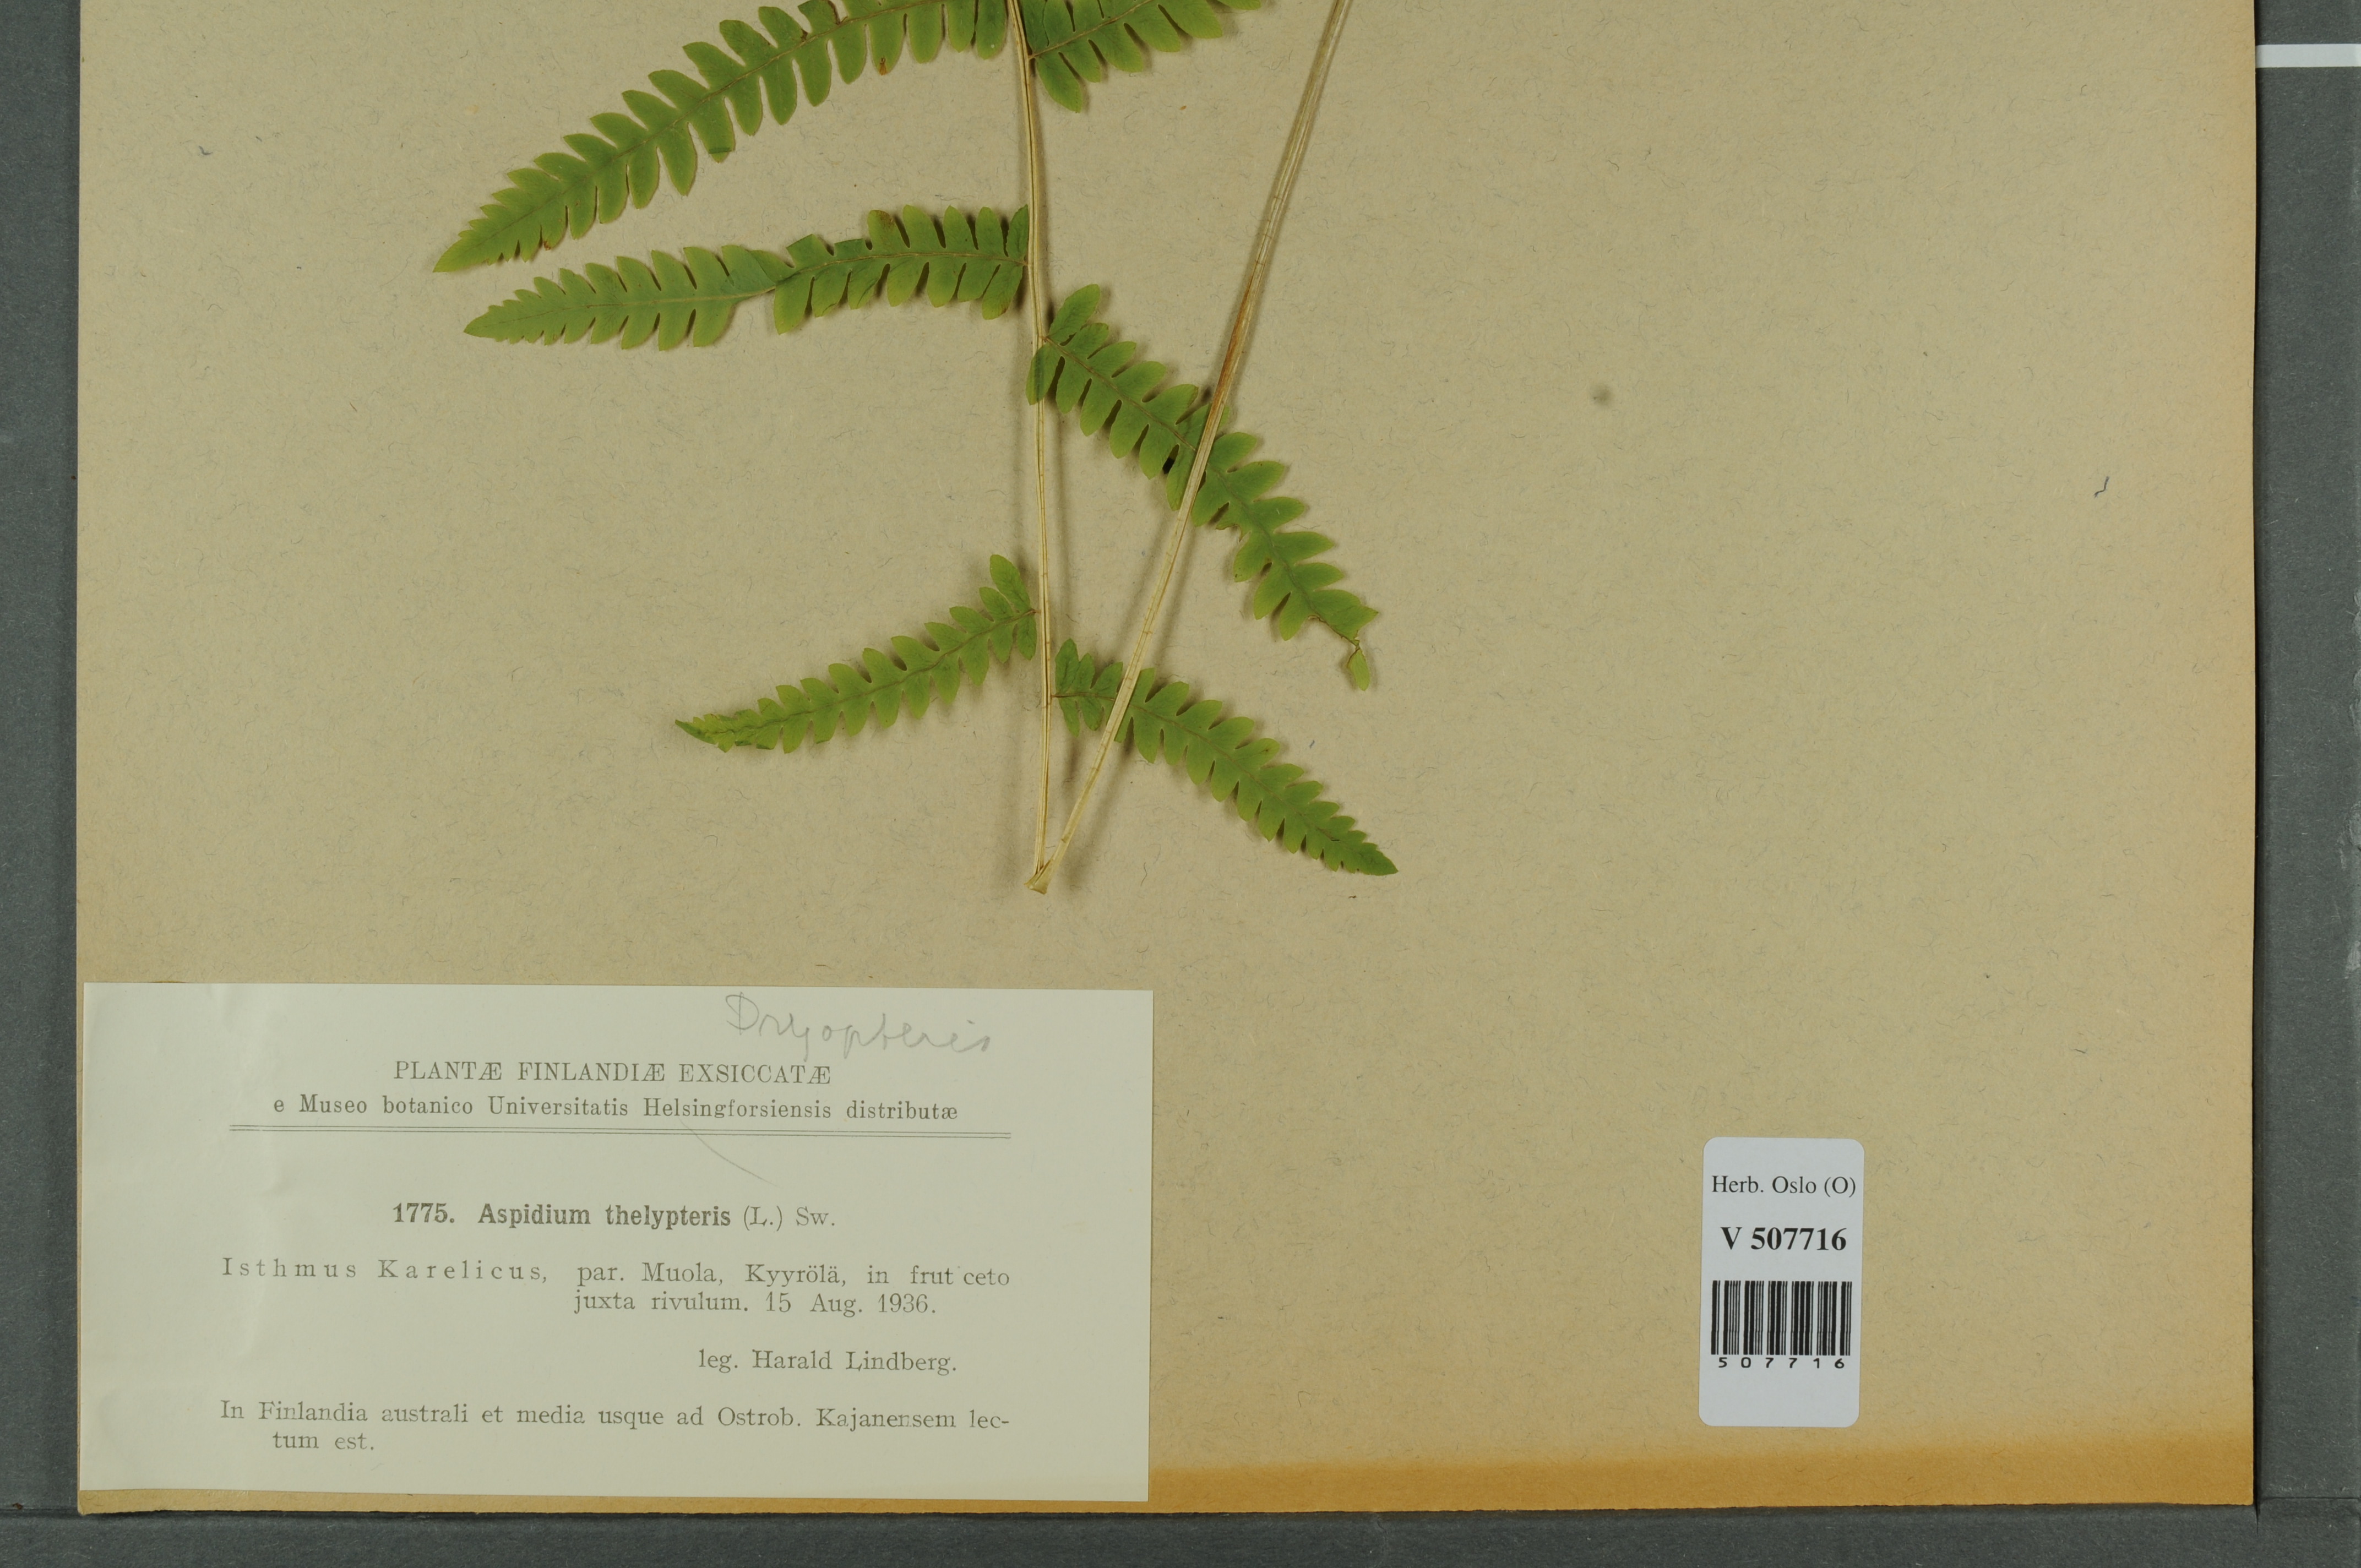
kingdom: Plantae
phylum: Tracheophyta
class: Polypodiopsida
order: Polypodiales
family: Thelypteridaceae
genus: Thelypteris
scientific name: Thelypteris palustris
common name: Marsh fern
